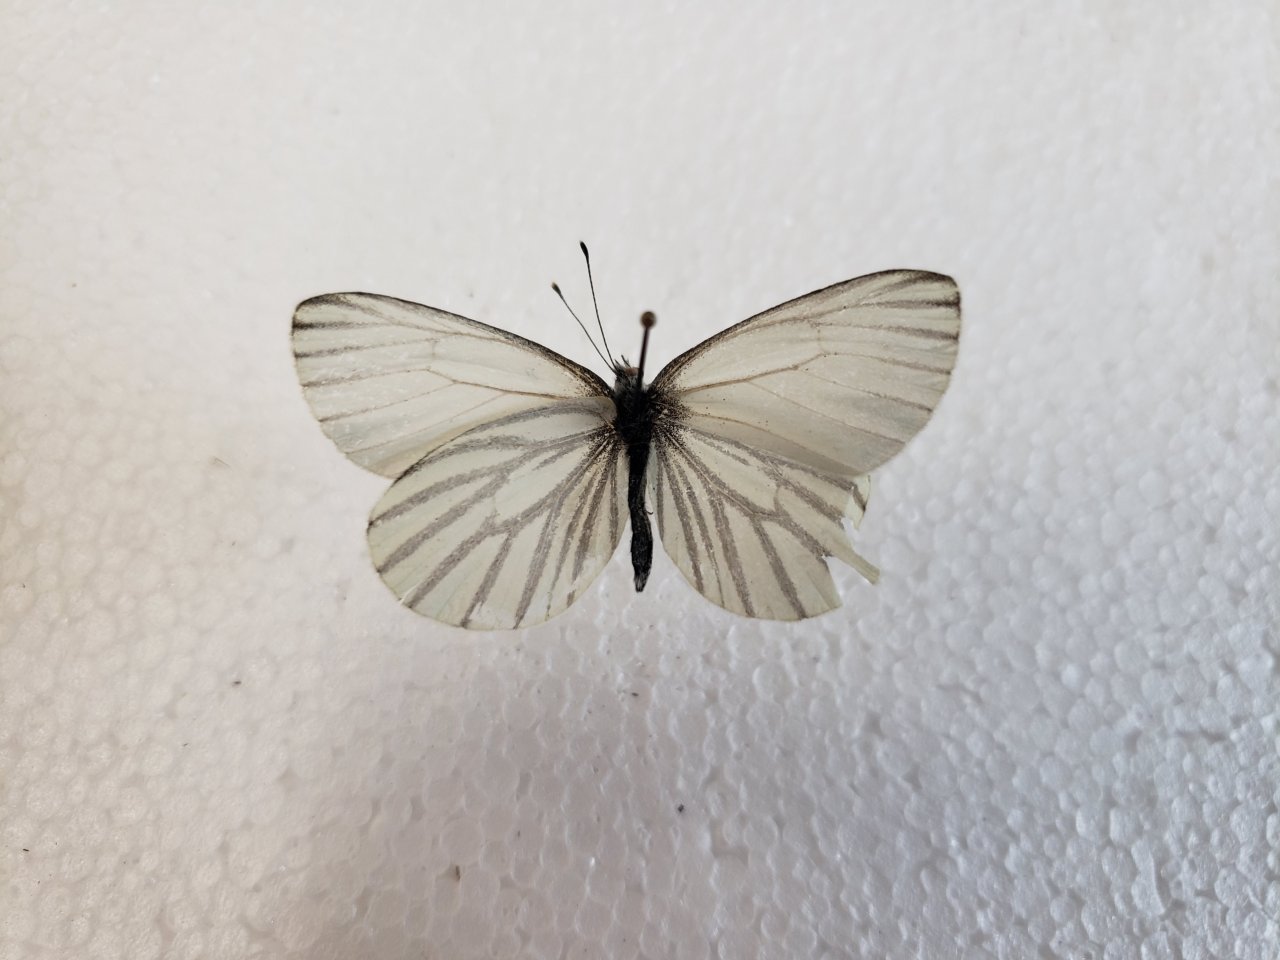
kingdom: Animalia
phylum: Arthropoda
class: Insecta
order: Lepidoptera
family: Pieridae
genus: Pieris
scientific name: Pieris oleracea
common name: Mustard White
